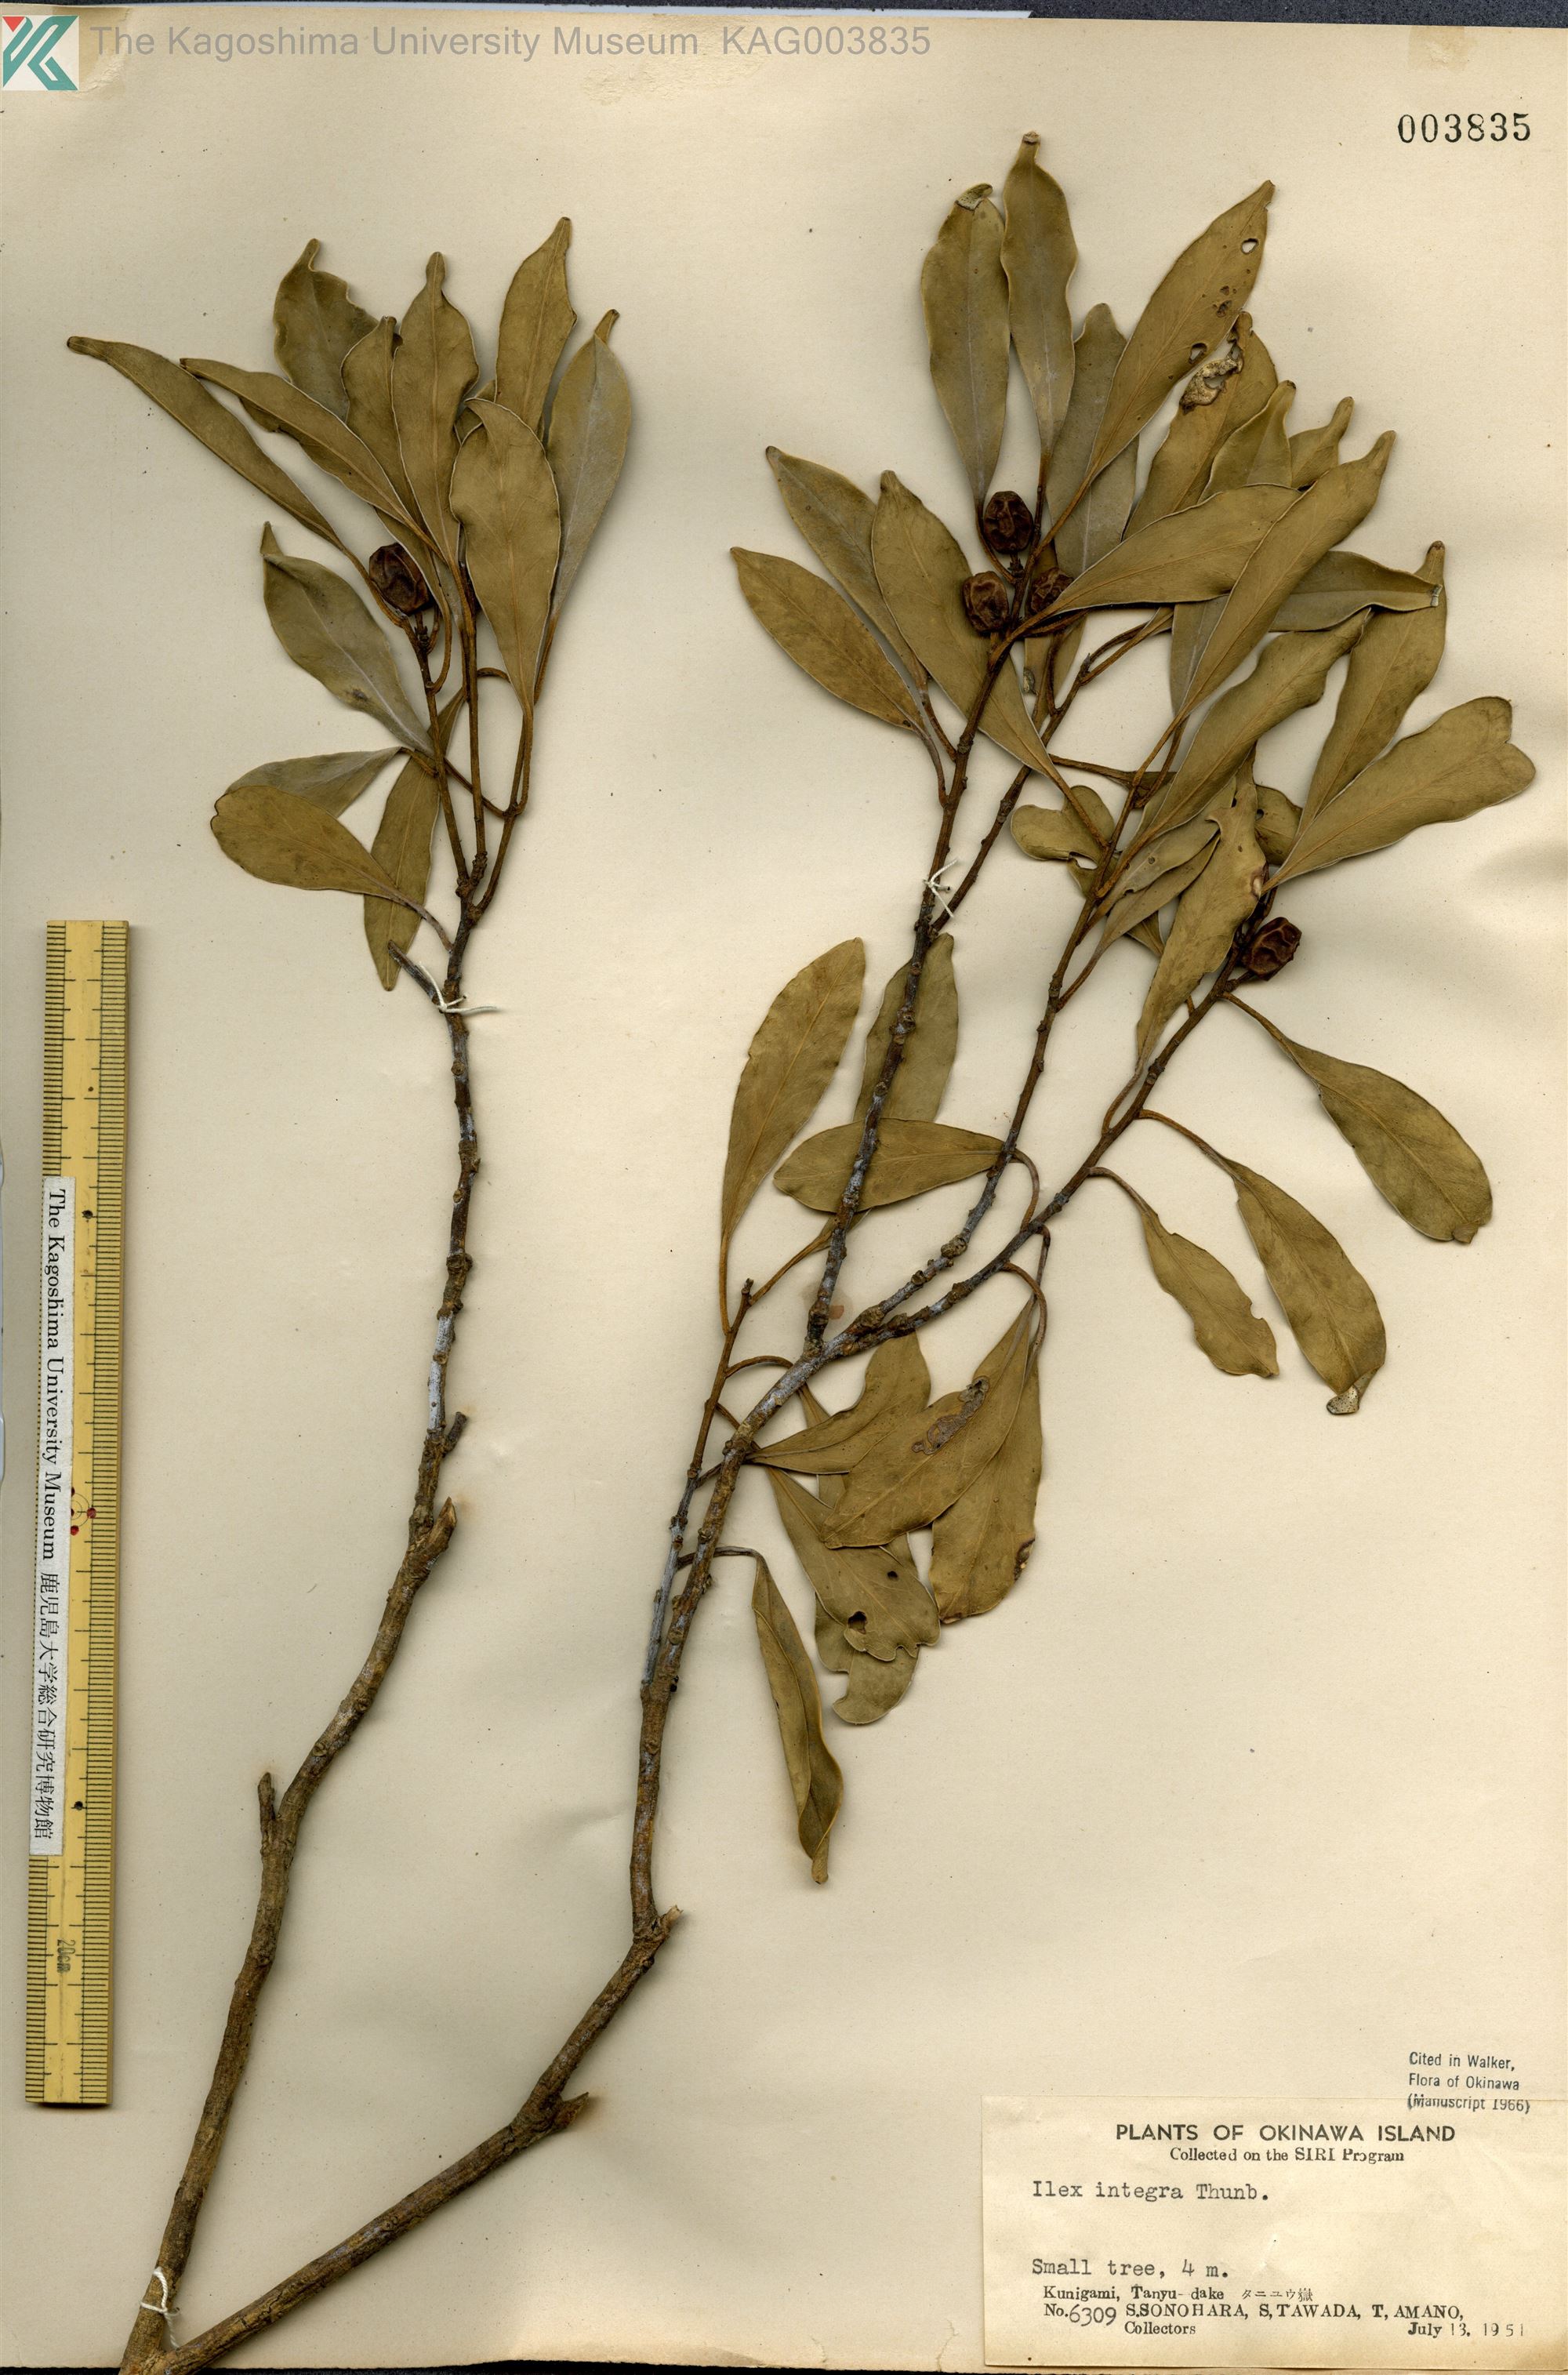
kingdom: Plantae
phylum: Tracheophyta
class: Magnoliopsida
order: Aquifoliales
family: Aquifoliaceae
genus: Ilex
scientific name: Ilex integra
